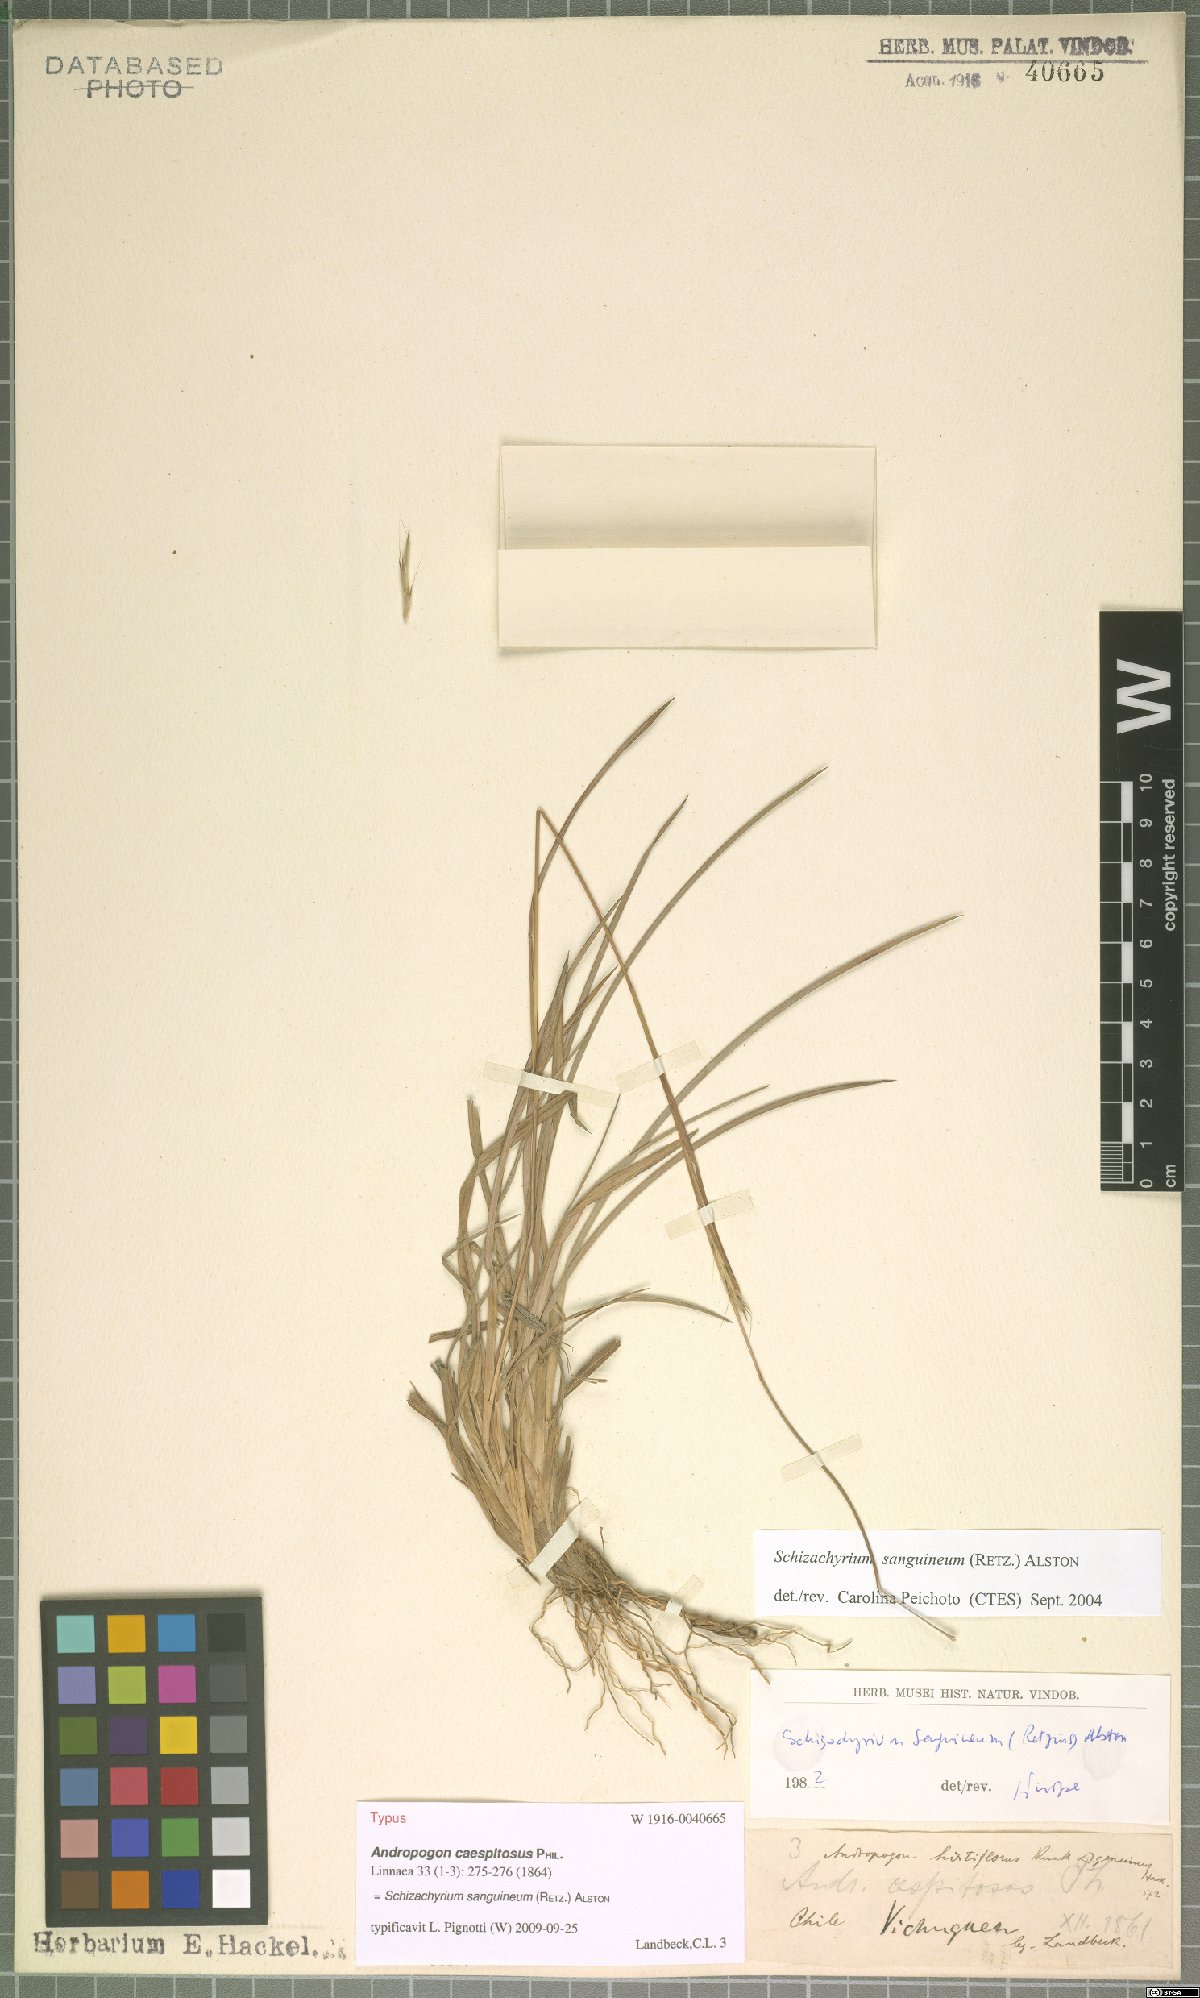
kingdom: Plantae
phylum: Tracheophyta
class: Liliopsida
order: Poales
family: Poaceae
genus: Schizachyrium
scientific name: Schizachyrium sanguineum
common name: Crimson bluestem
